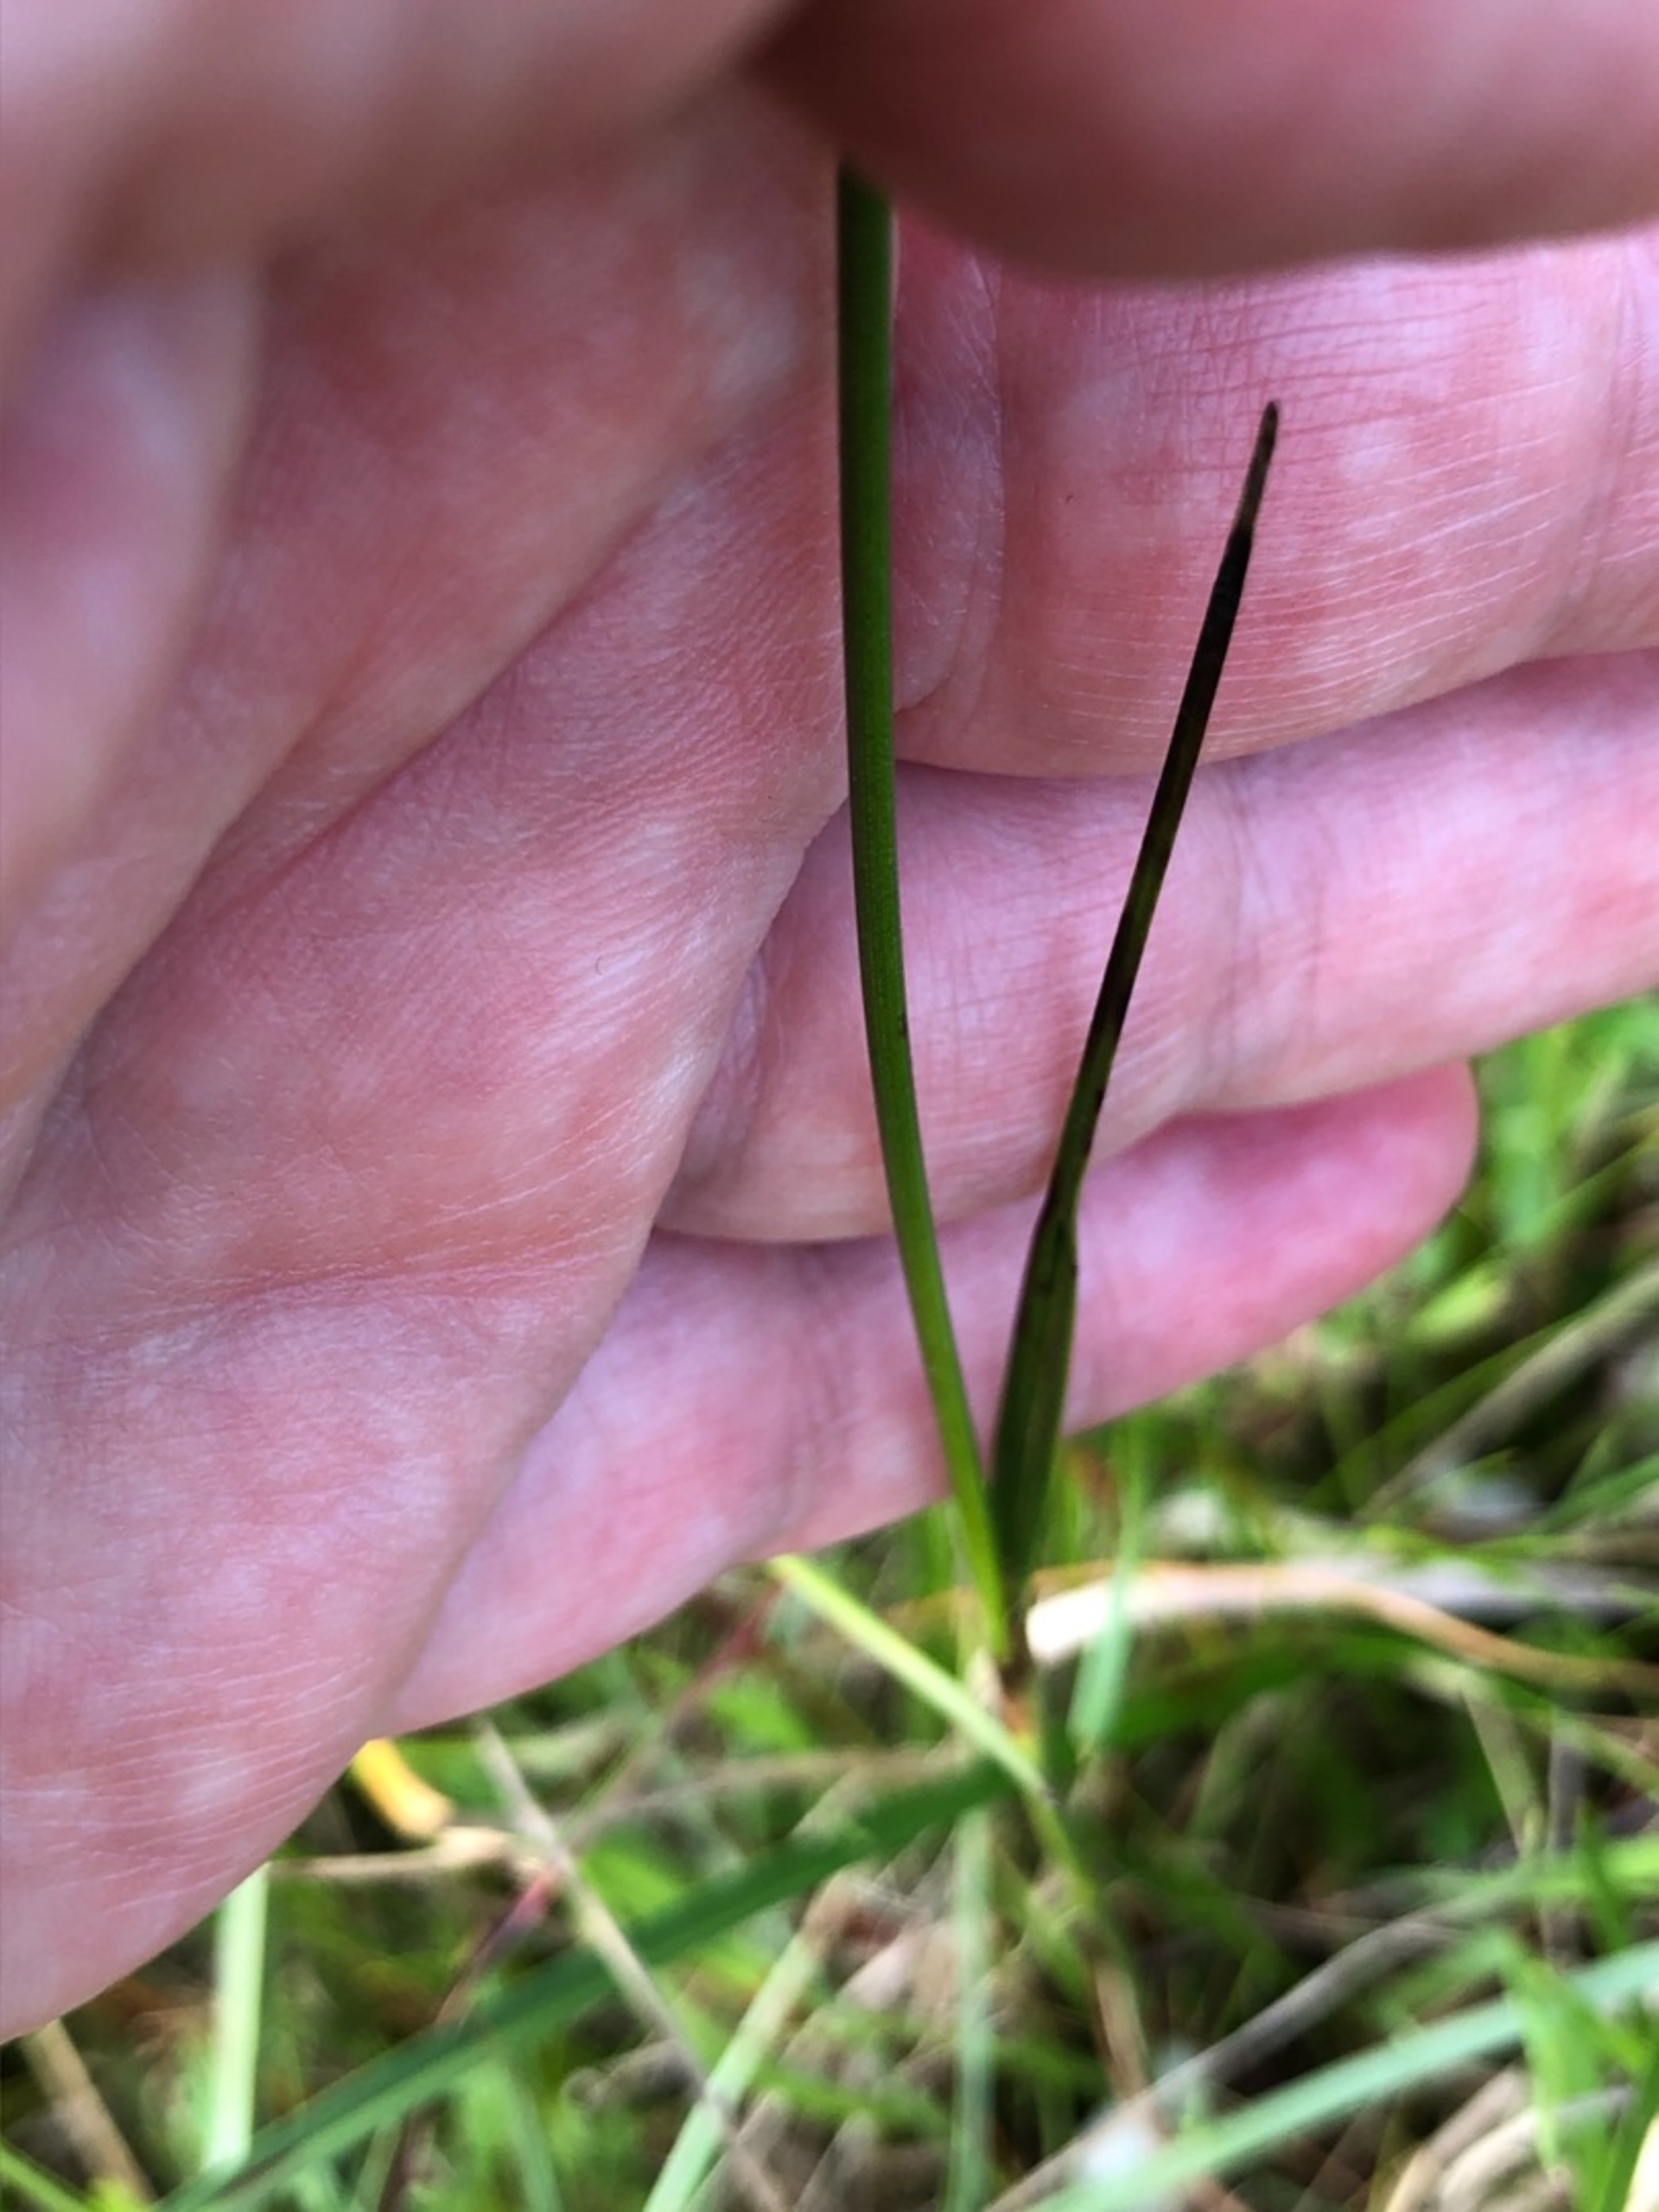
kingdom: Plantae
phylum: Tracheophyta
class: Liliopsida
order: Poales
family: Cyperaceae
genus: Eriophorum
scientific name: Eriophorum angustifolium
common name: Smalbladet kæruld
